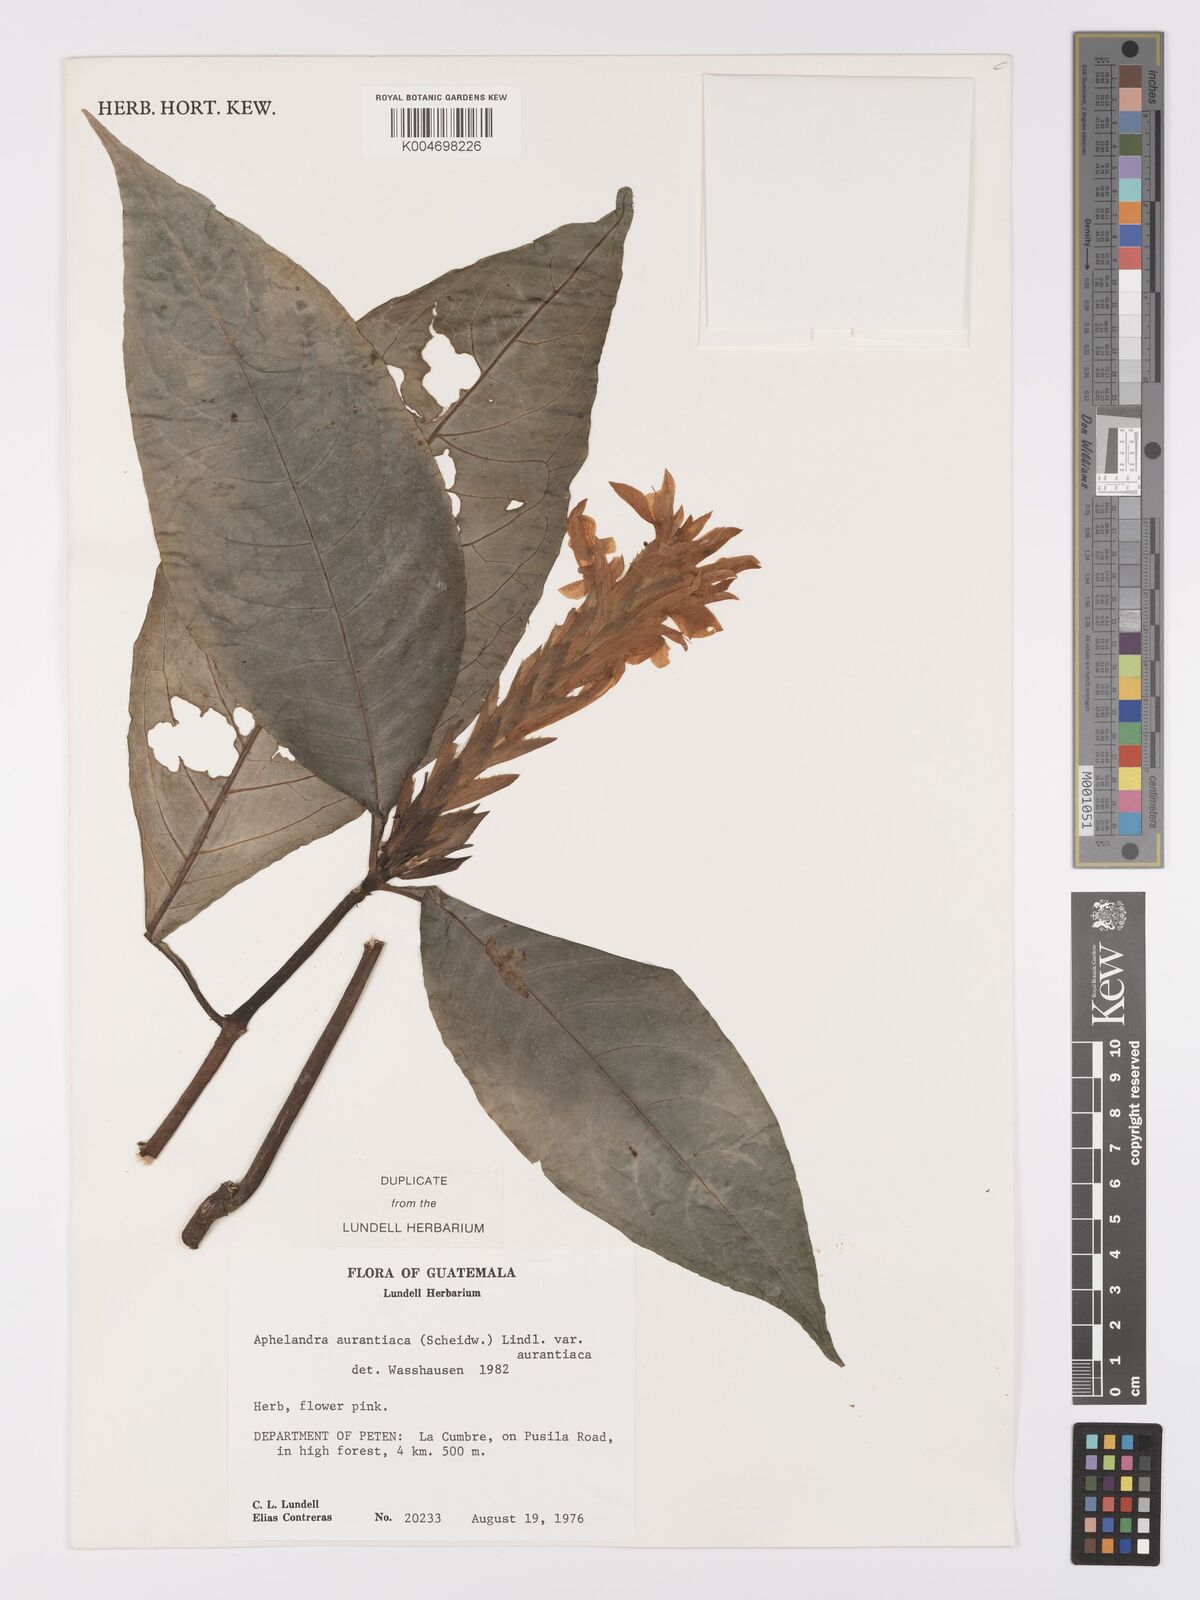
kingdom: Plantae
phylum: Tracheophyta
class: Magnoliopsida
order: Lamiales
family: Acanthaceae
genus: Aphelandra
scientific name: Aphelandra aurantiaca
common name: Fiery spike
